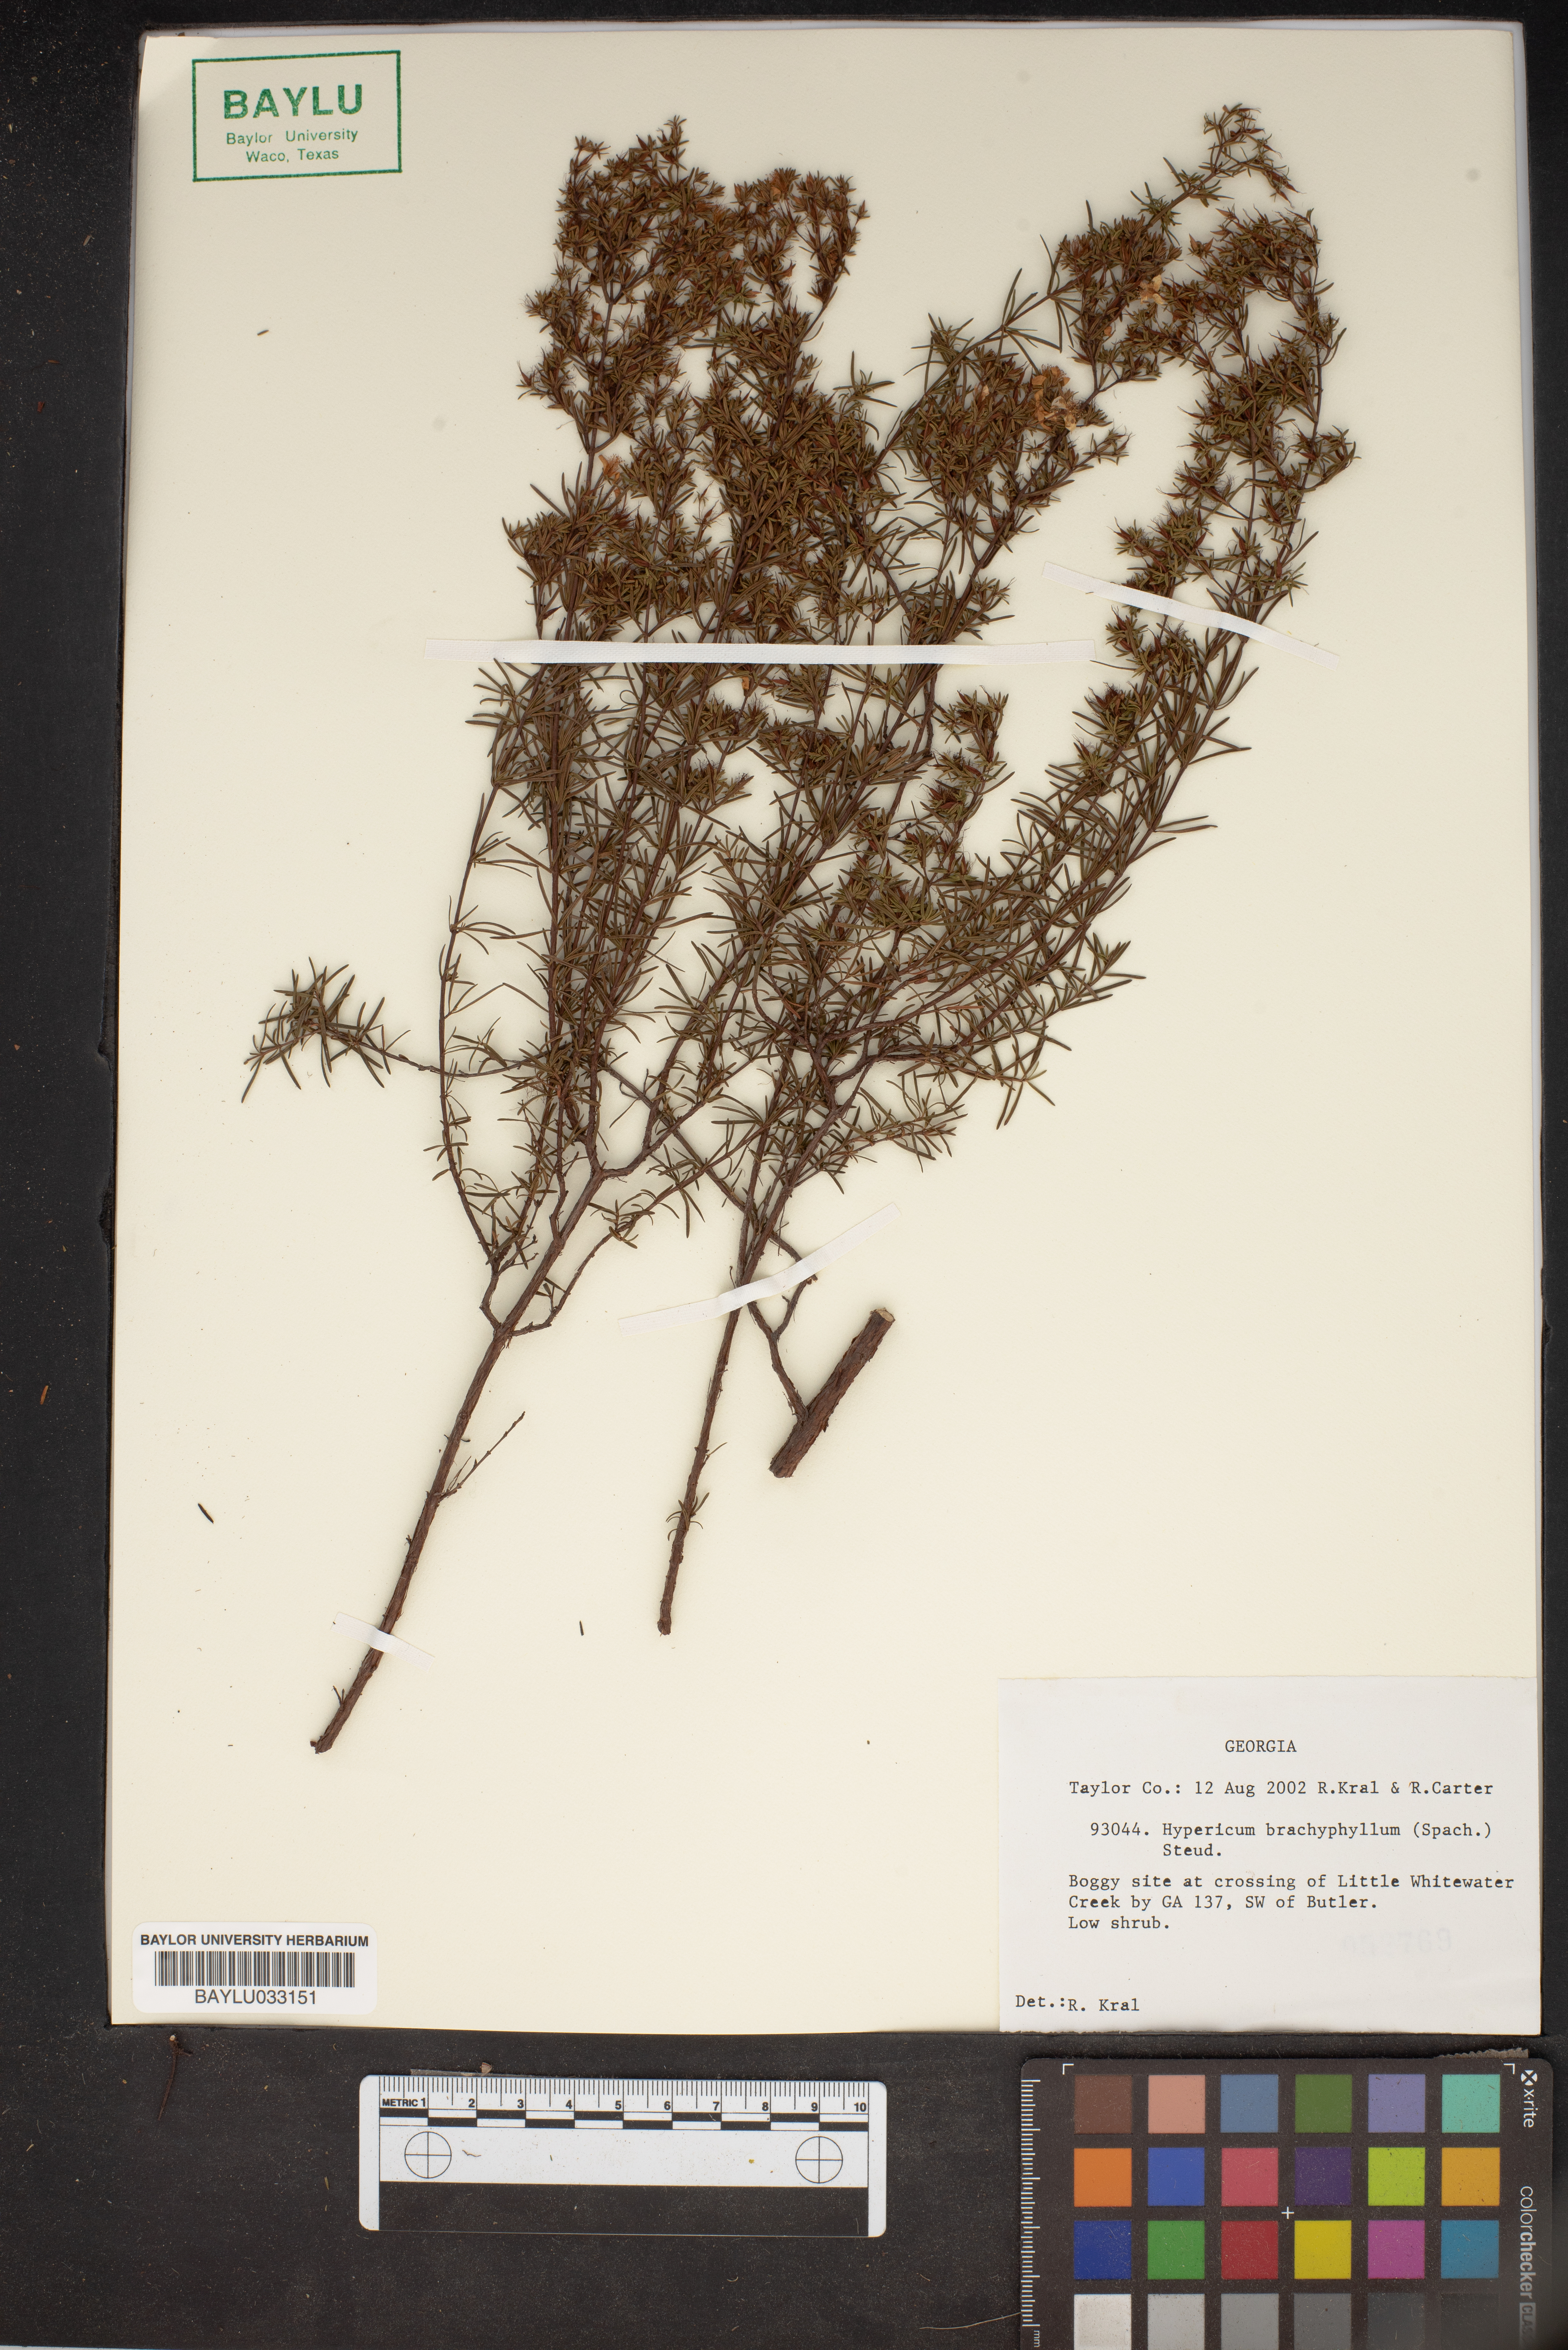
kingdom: Plantae
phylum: Tracheophyta
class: Magnoliopsida
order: Malpighiales
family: Hypericaceae
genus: Hypericum
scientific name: Hypericum brachyphyllum
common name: Coastal plain st. john's-wort
